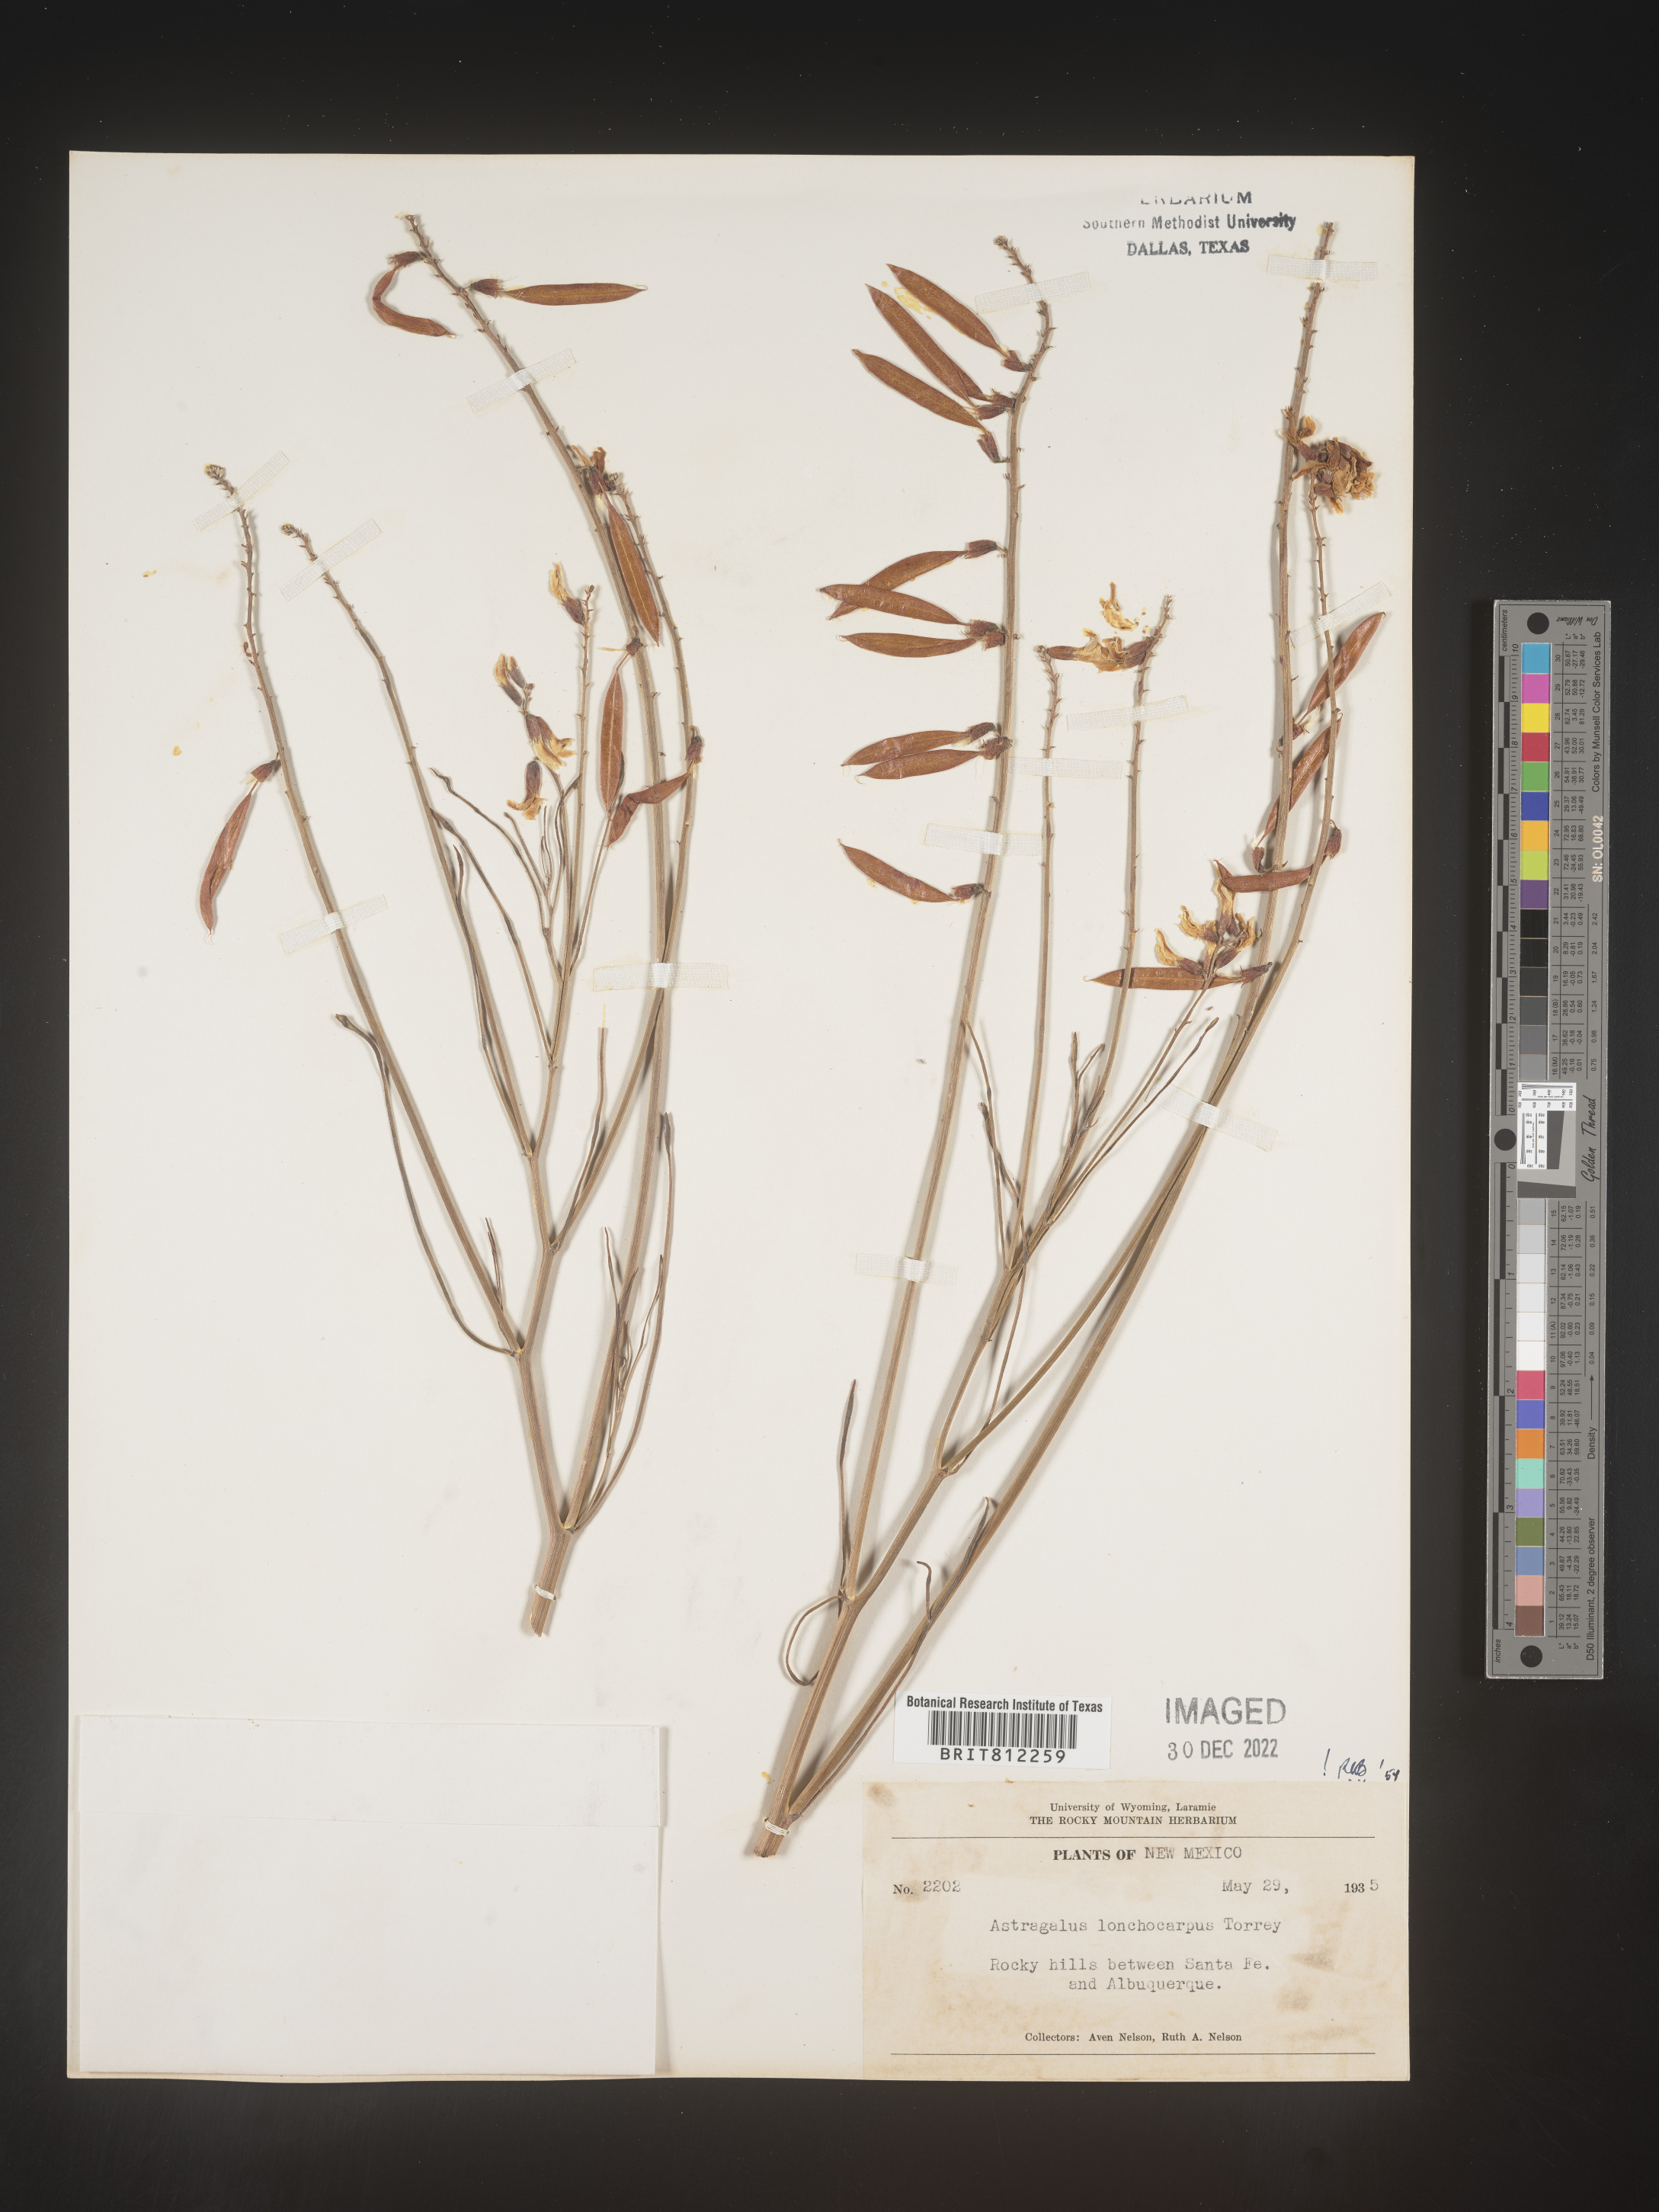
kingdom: Plantae
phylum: Tracheophyta
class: Magnoliopsida
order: Fabales
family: Fabaceae
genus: Astragalus
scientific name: Astragalus lonchocarpus
